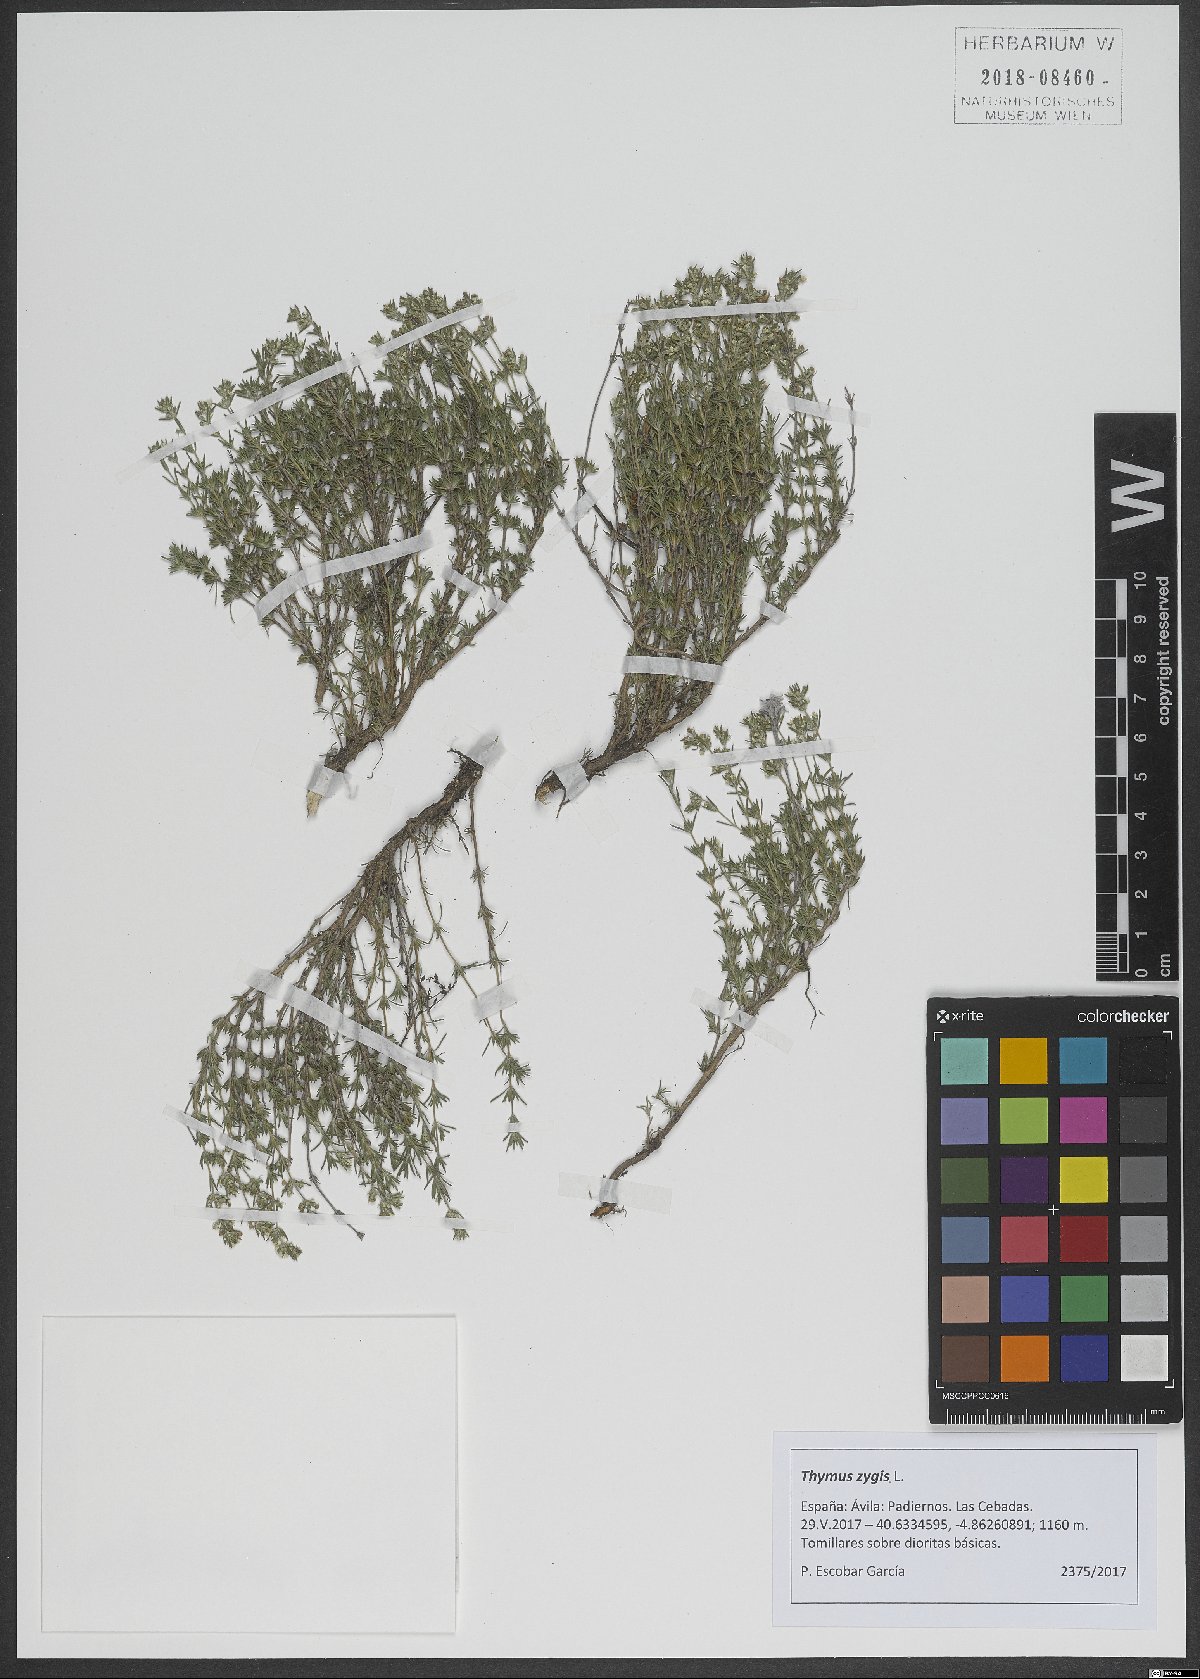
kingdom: Plantae
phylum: Tracheophyta
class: Magnoliopsida
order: Lamiales
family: Lamiaceae
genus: Thymus
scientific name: Thymus zygis
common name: White thyme
